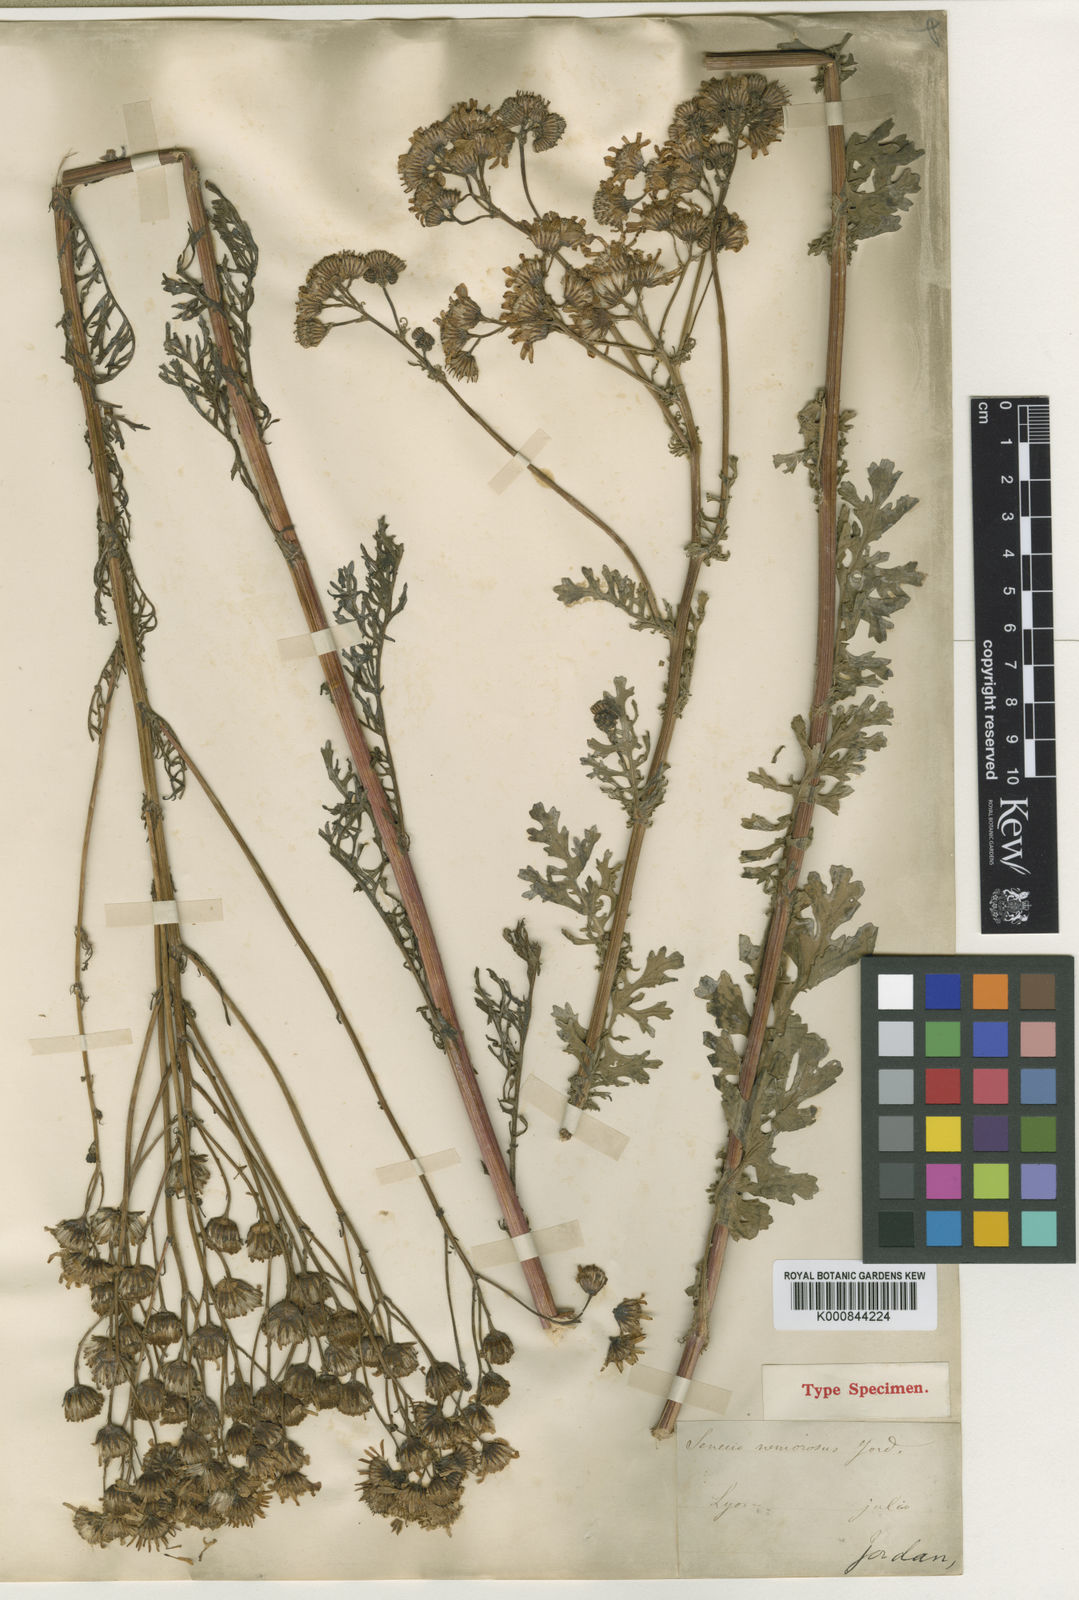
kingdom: Plantae
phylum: Tracheophyta
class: Magnoliopsida
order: Asterales
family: Asteraceae
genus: Jacobaea
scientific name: Jacobaea vulgaris
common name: Stinking willie
